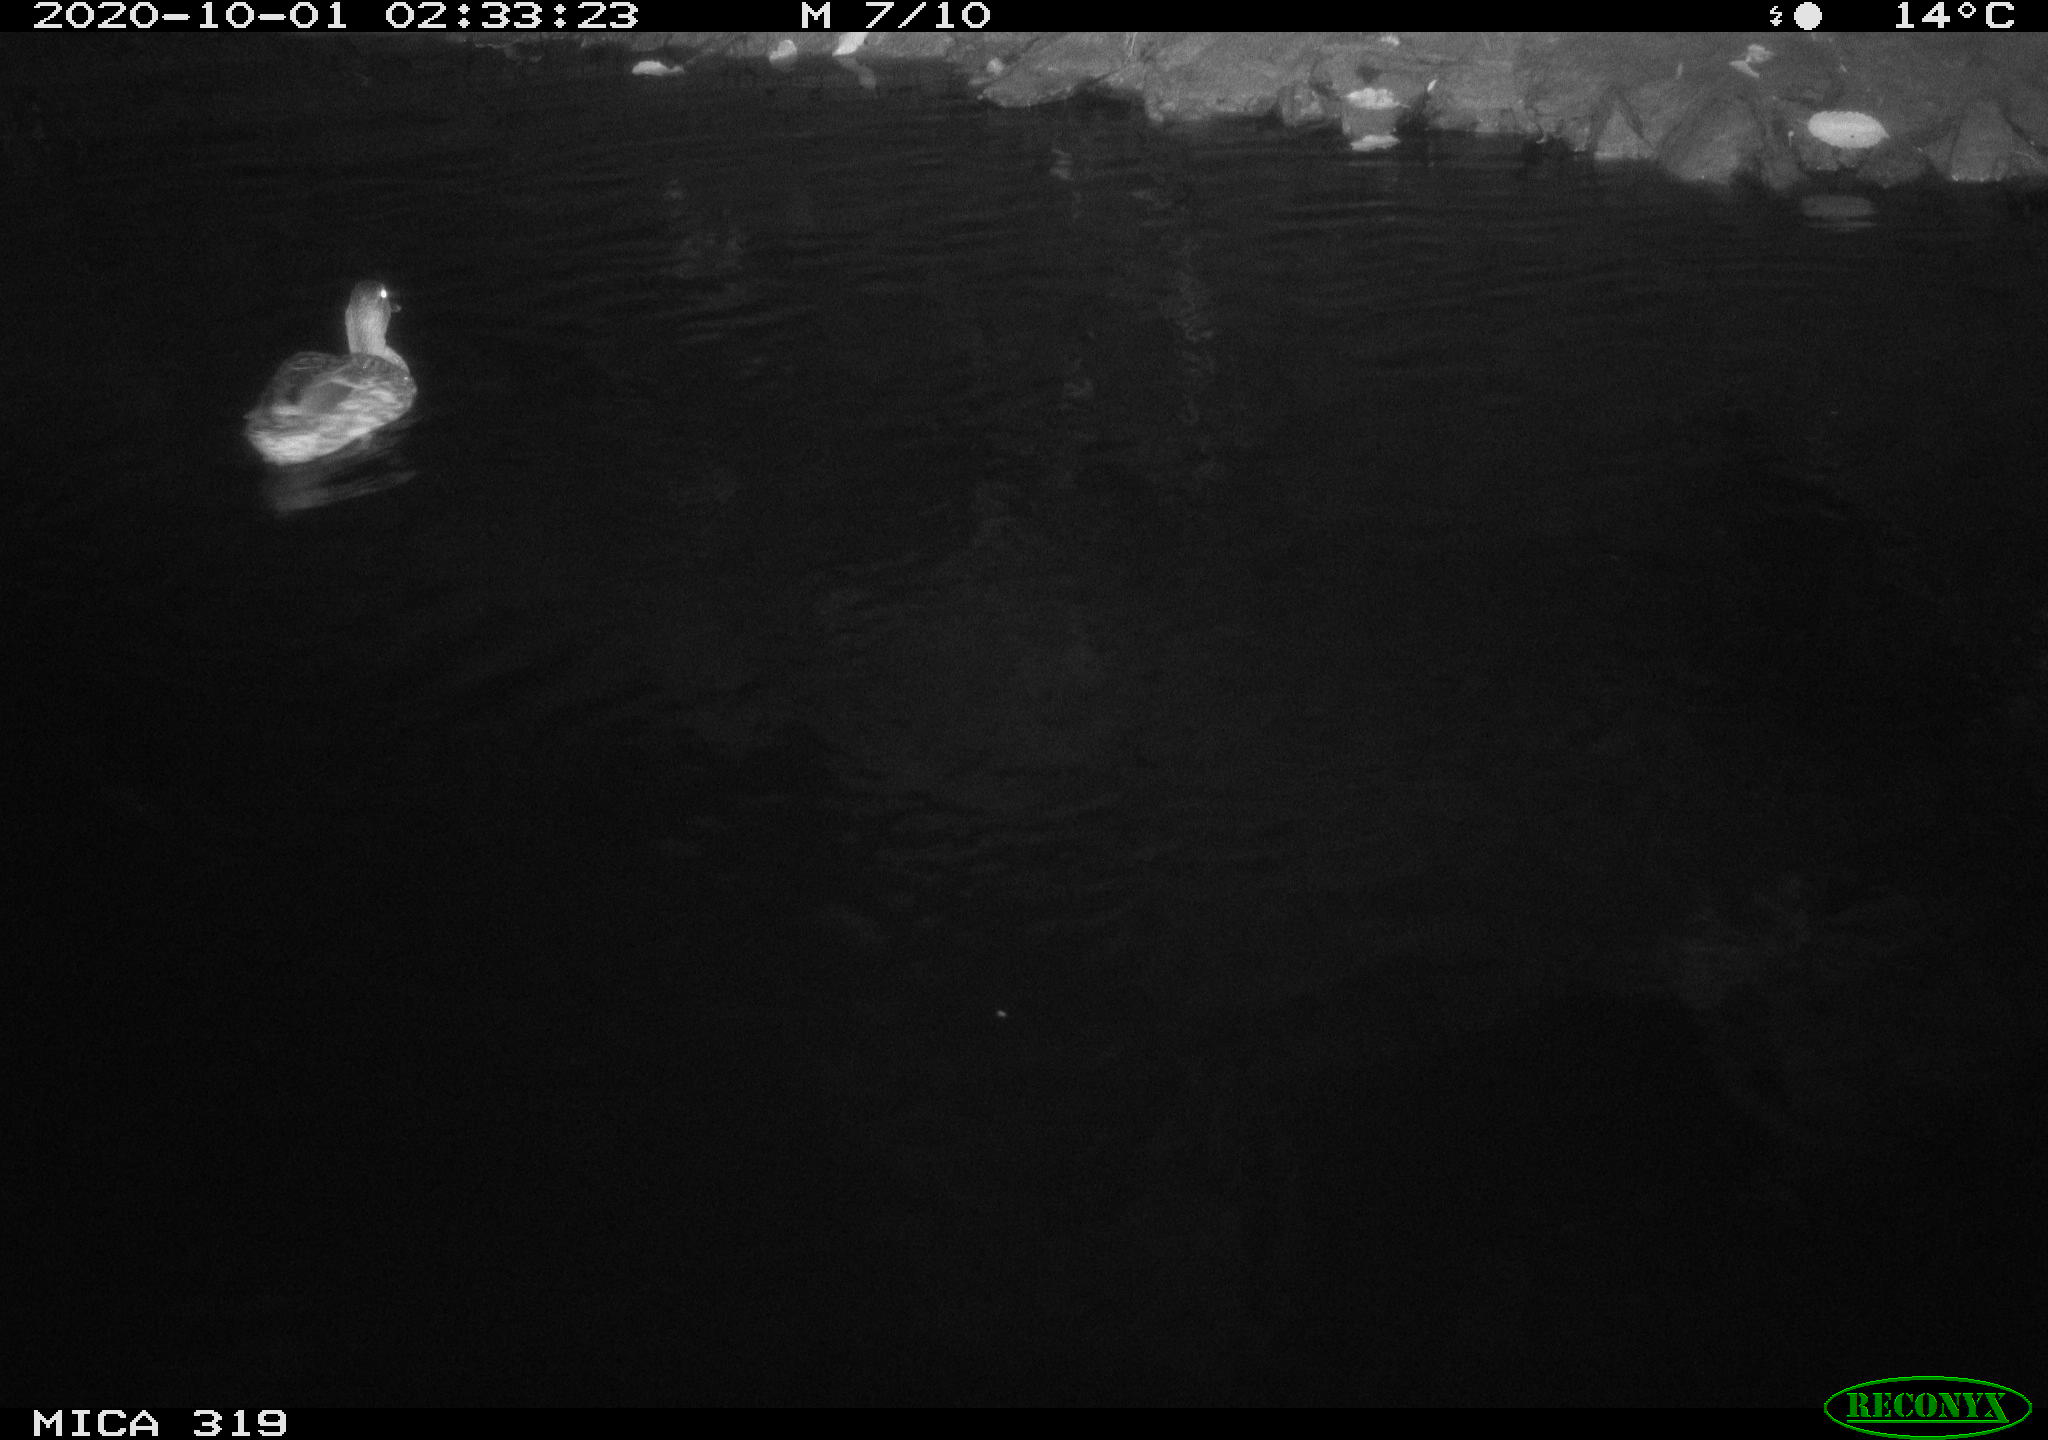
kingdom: Animalia
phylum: Chordata
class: Aves
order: Anseriformes
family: Anatidae
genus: Anas
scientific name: Anas platyrhynchos
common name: Mallard
